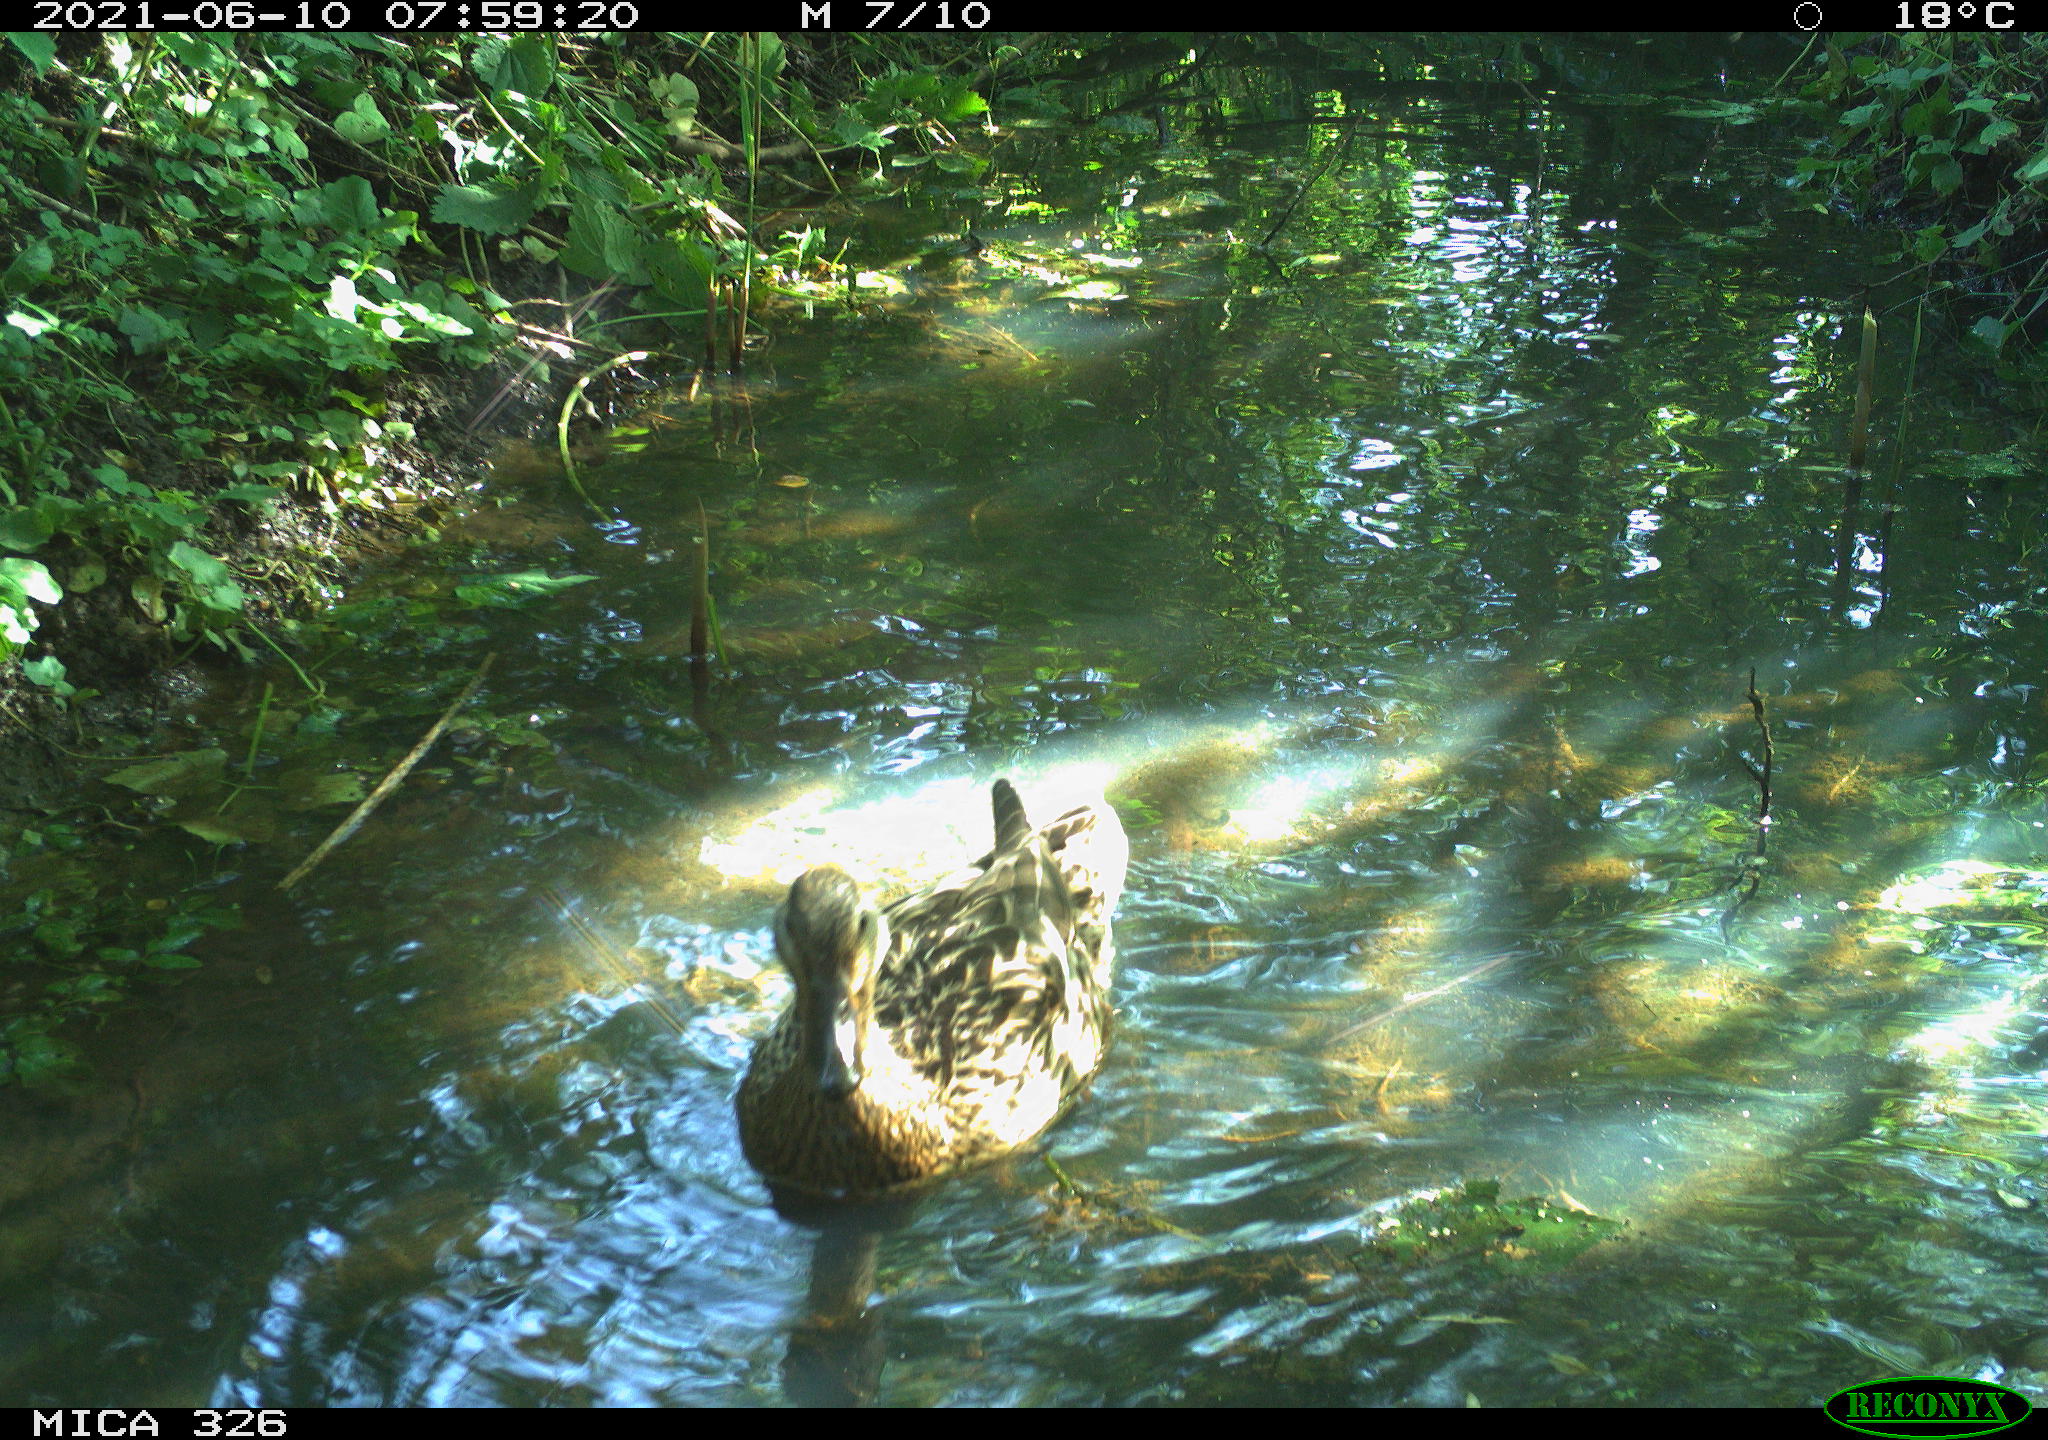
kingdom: Animalia
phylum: Chordata
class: Aves
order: Anseriformes
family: Anatidae
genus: Anas
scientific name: Anas platyrhynchos
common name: Mallard
